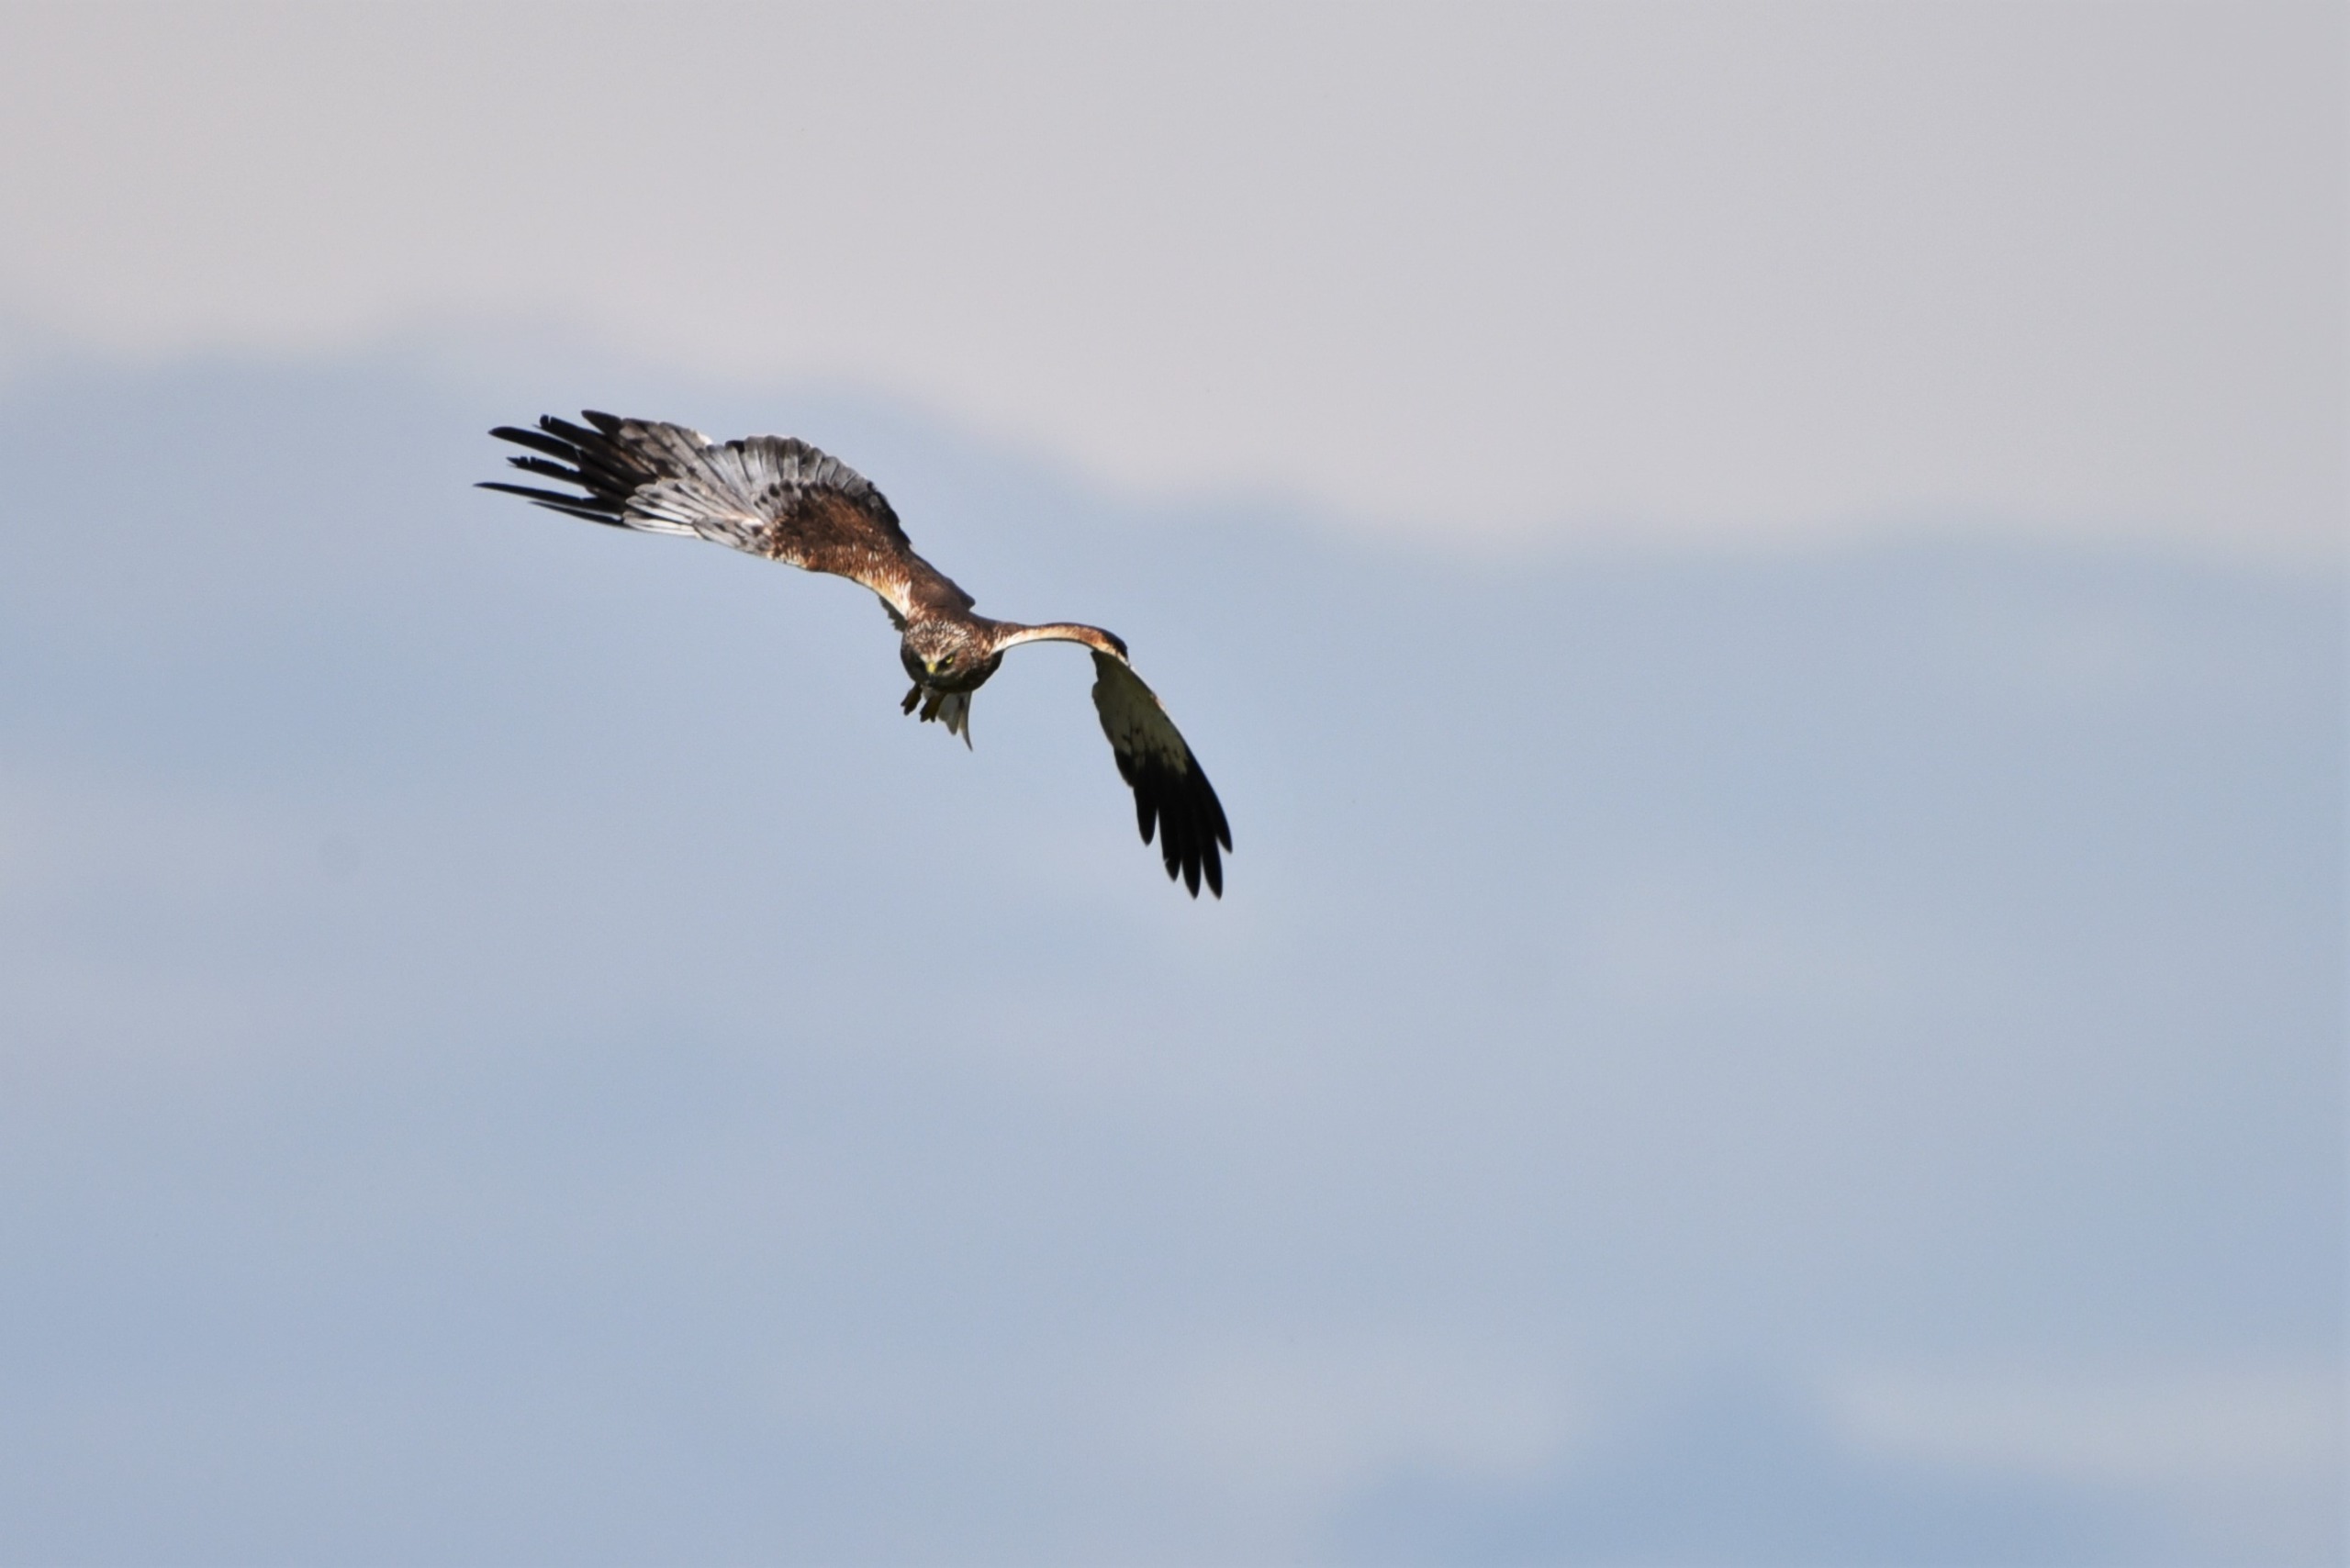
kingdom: Animalia
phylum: Chordata
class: Aves
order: Accipitriformes
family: Accipitridae
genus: Circus
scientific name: Circus aeruginosus
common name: Rørhøg
